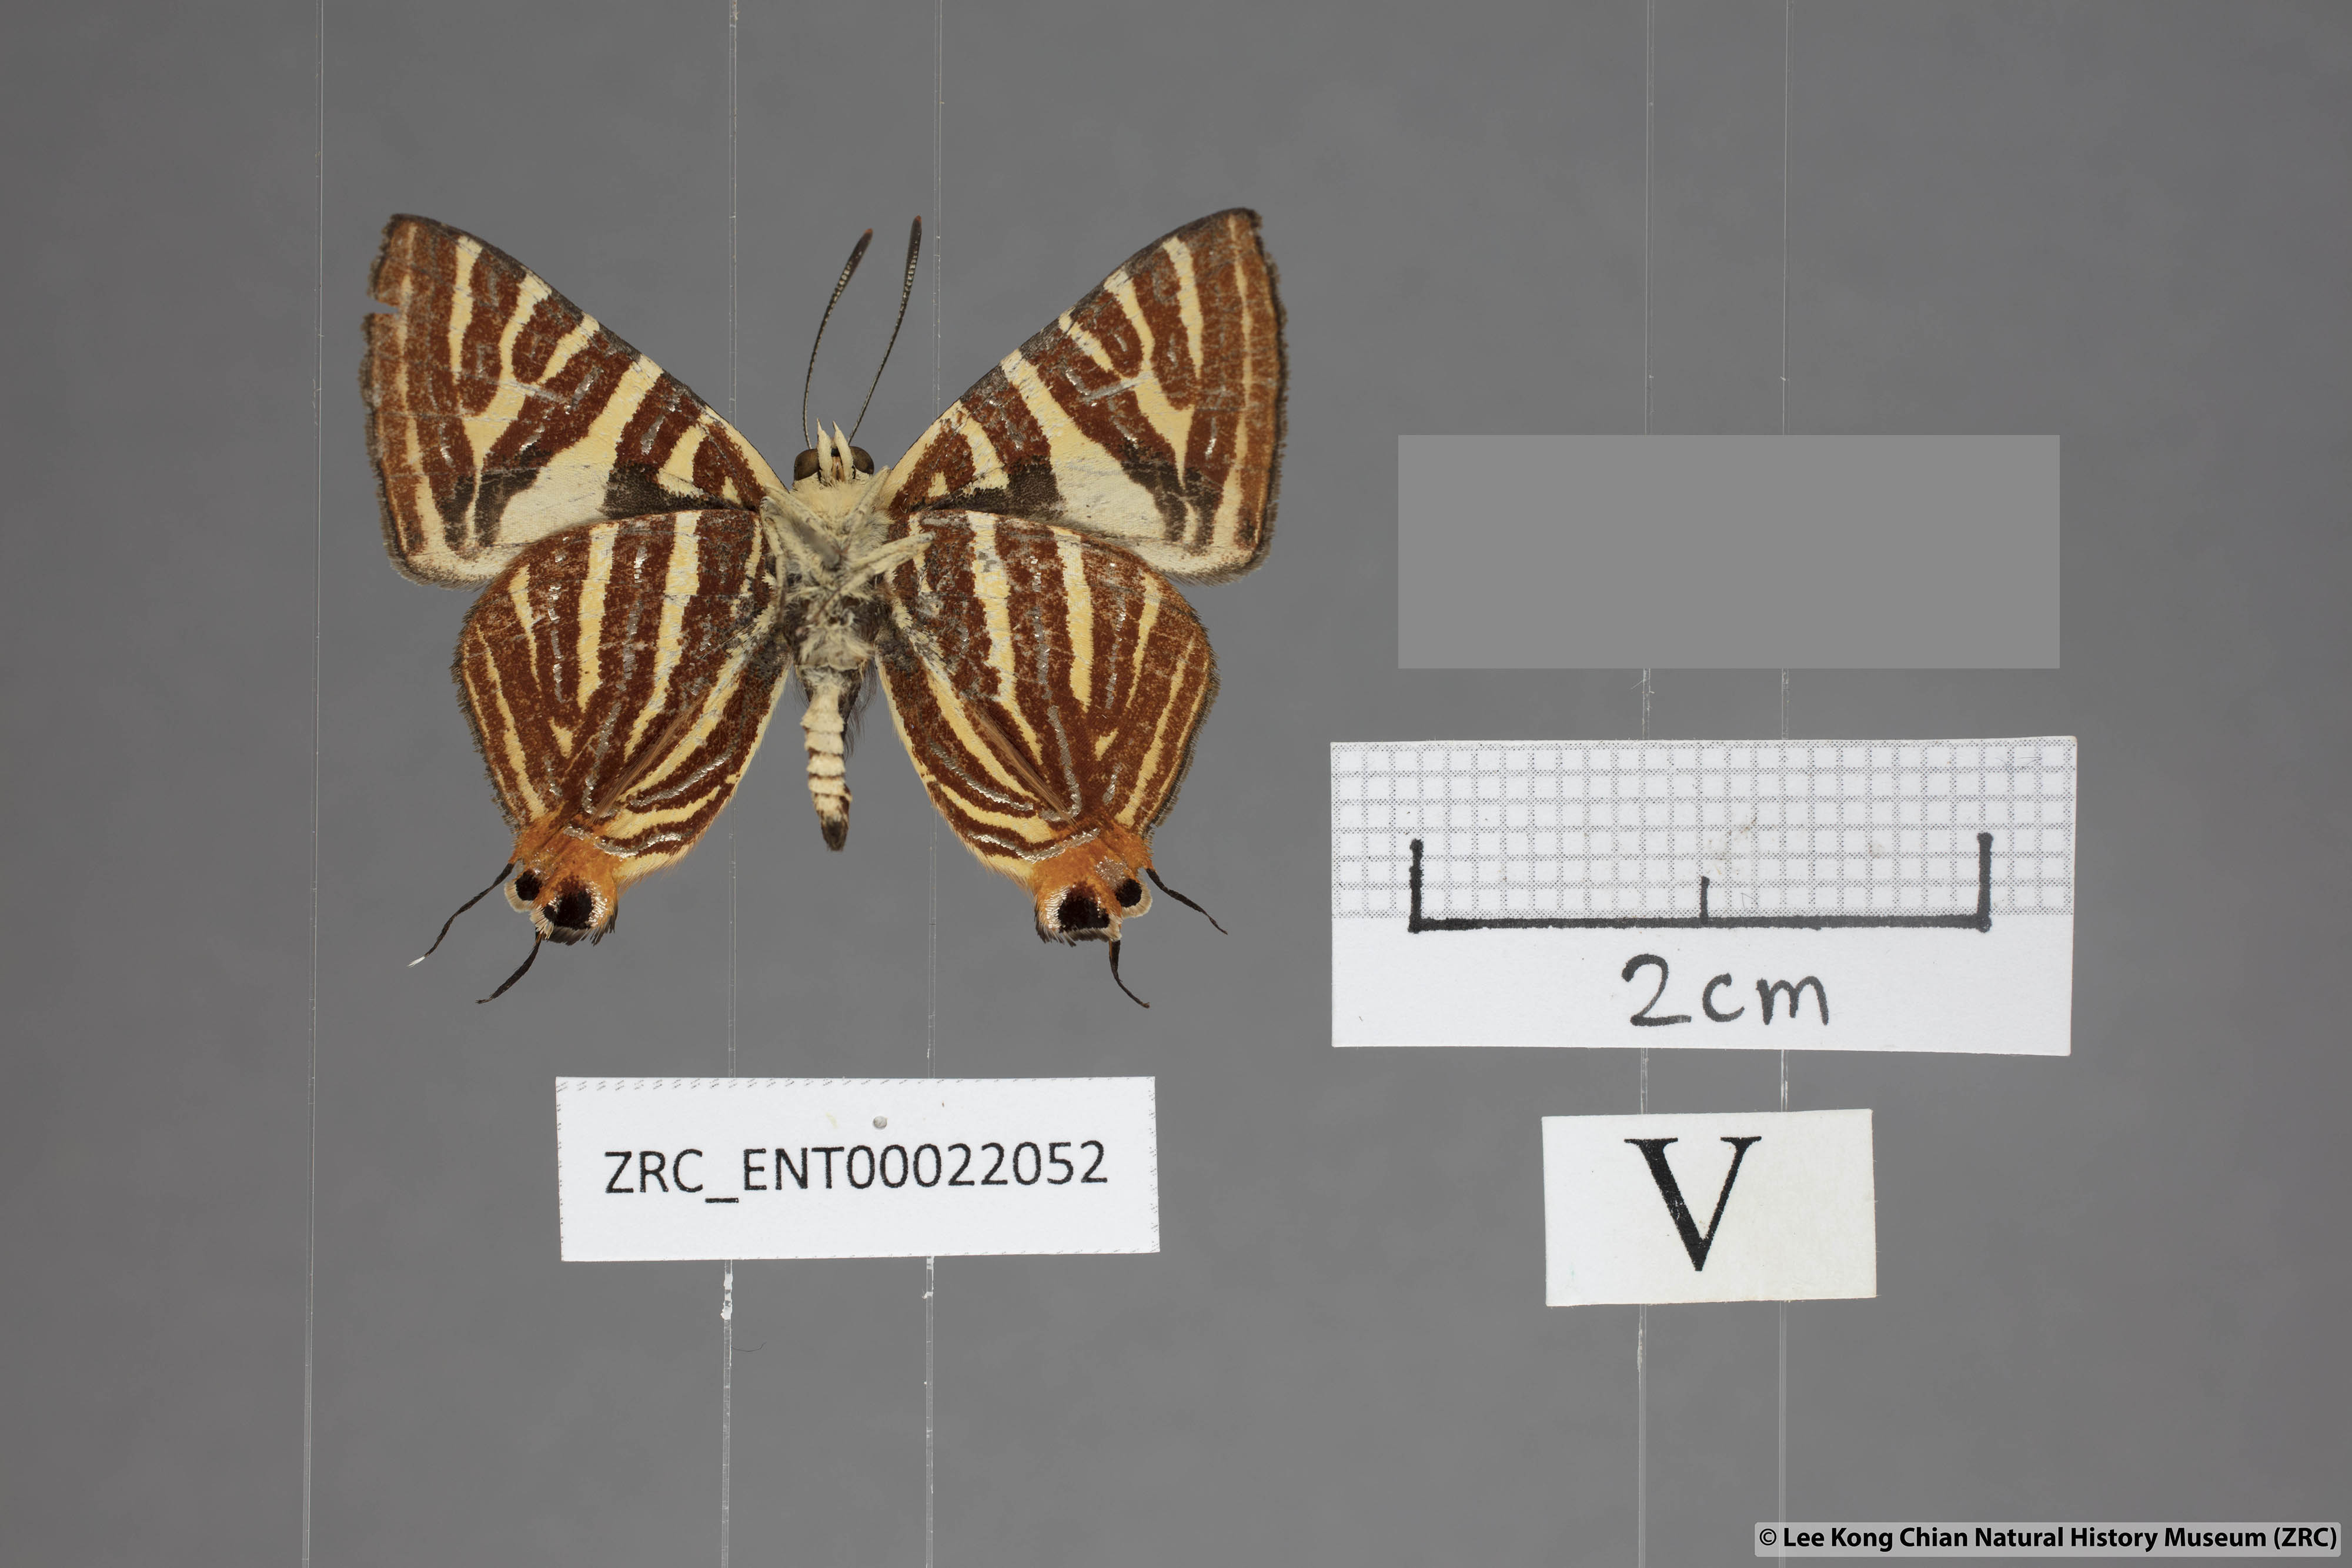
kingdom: Animalia
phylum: Arthropoda
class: Insecta
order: Lepidoptera
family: Lycaenidae
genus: Spindasis
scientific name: Spindasis kutu
